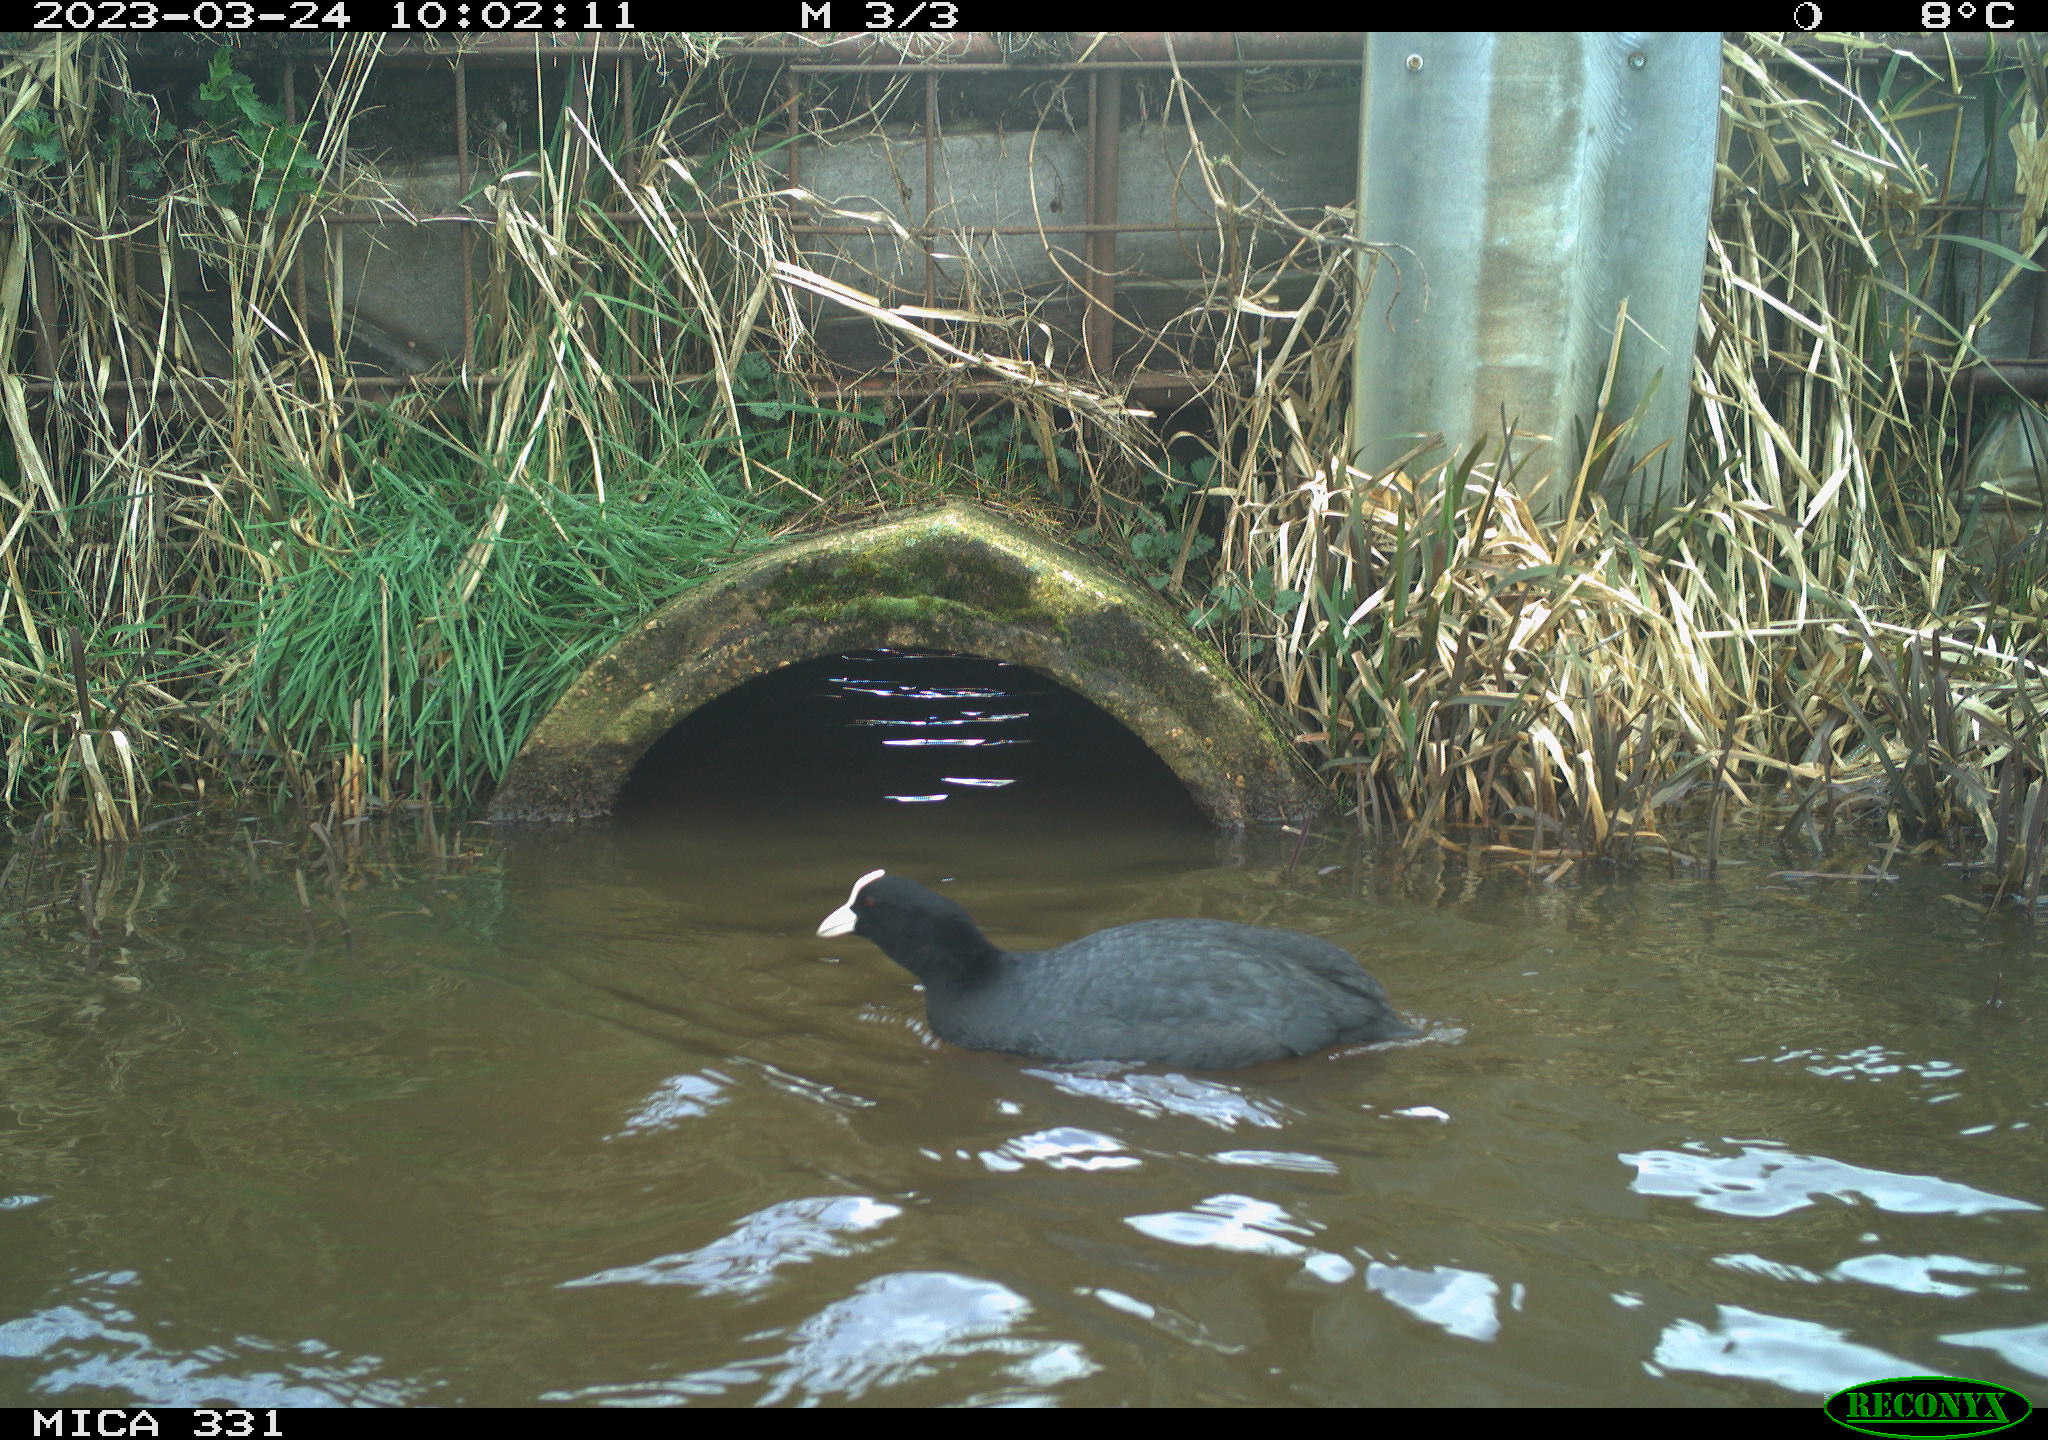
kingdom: Animalia
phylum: Chordata
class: Aves
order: Gruiformes
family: Rallidae
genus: Fulica
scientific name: Fulica atra
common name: Eurasian coot
